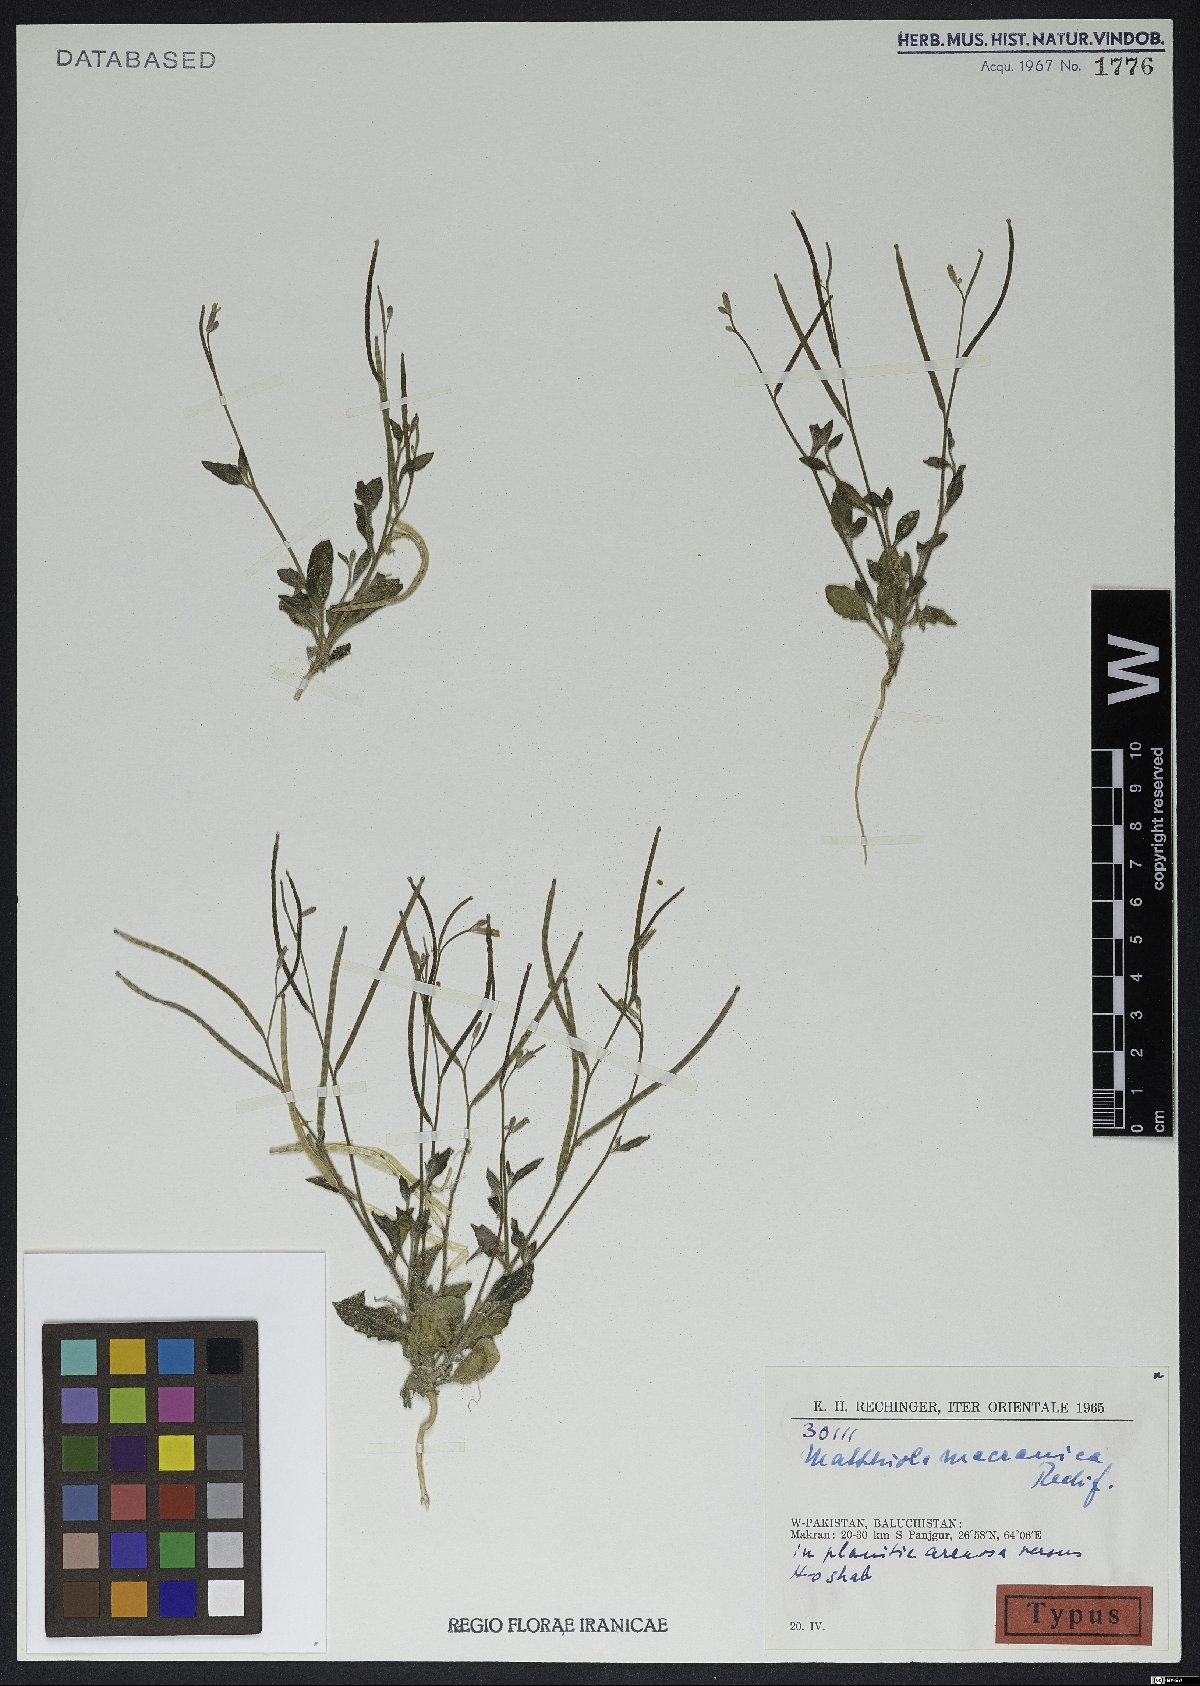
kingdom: Plantae
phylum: Tracheophyta
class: Magnoliopsida
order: Brassicales
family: Brassicaceae
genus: Matthiola
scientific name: Matthiola macranica
